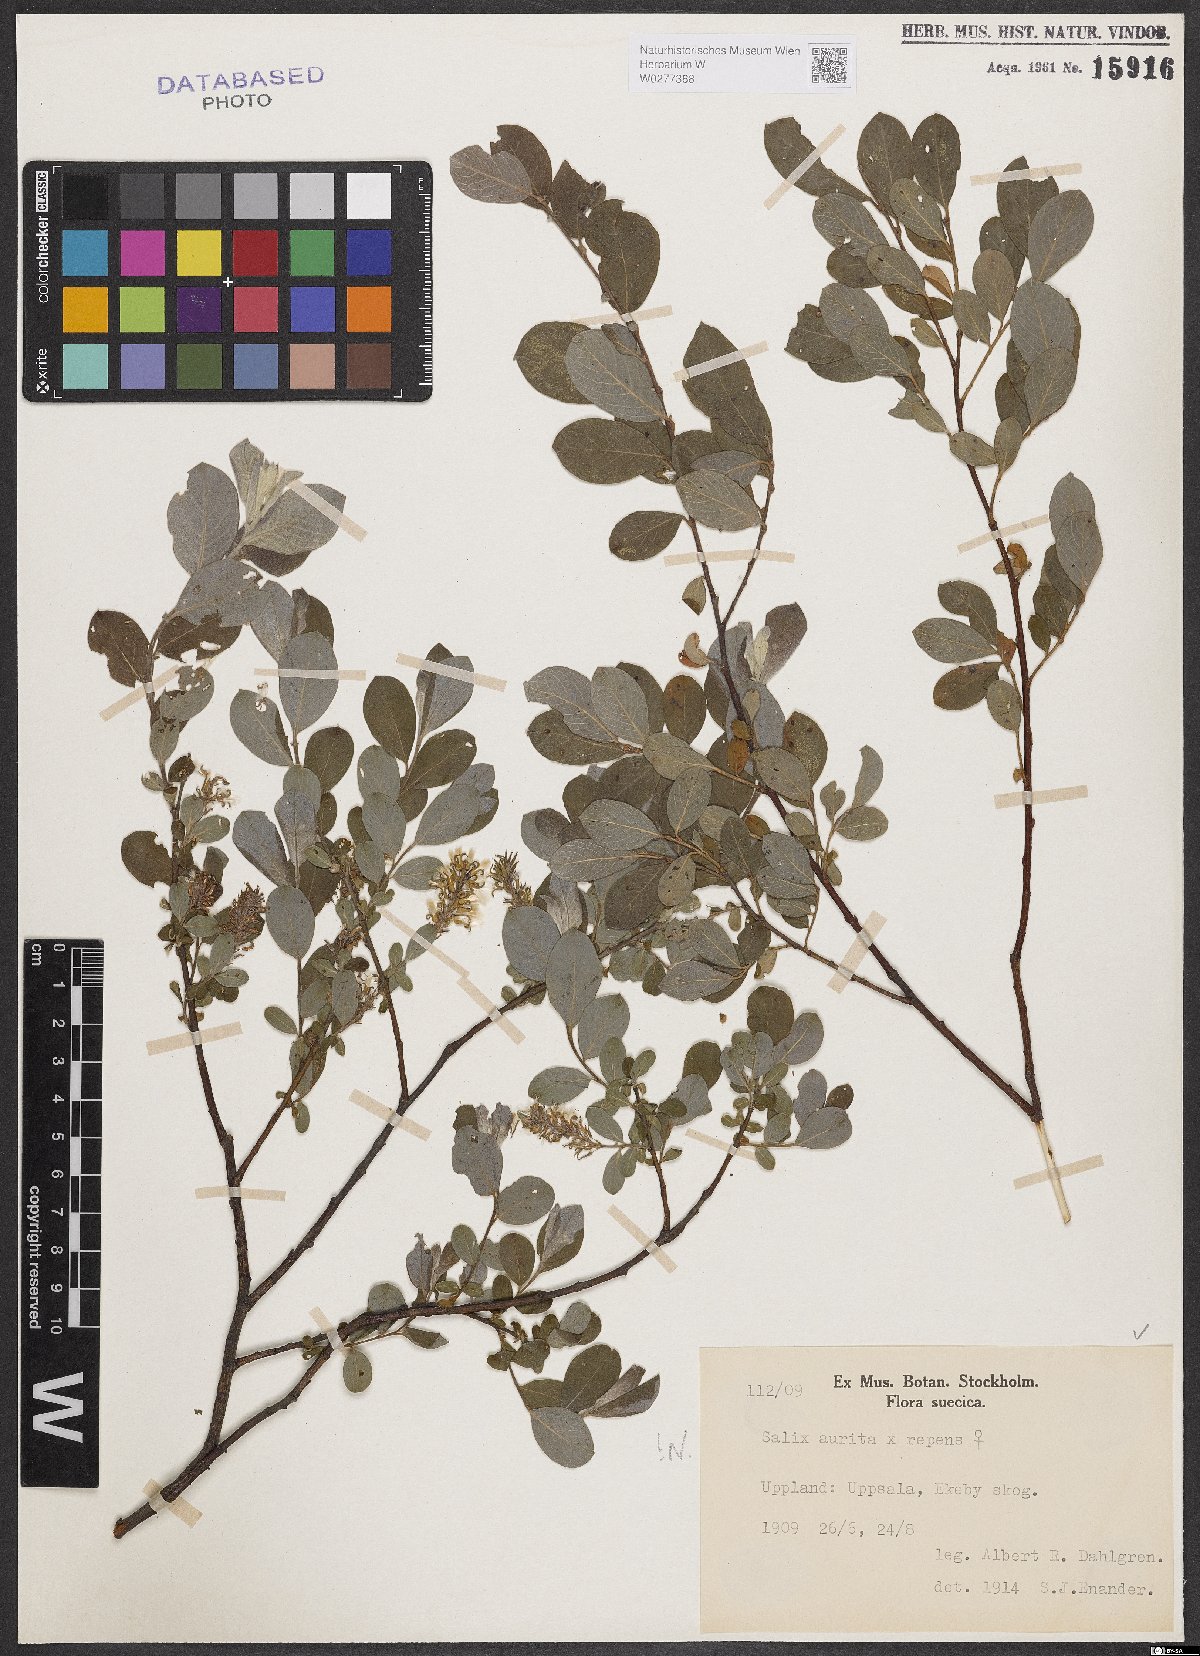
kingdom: Plantae
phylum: Tracheophyta
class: Magnoliopsida
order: Malpighiales
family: Salicaceae
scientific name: Salicaceae
